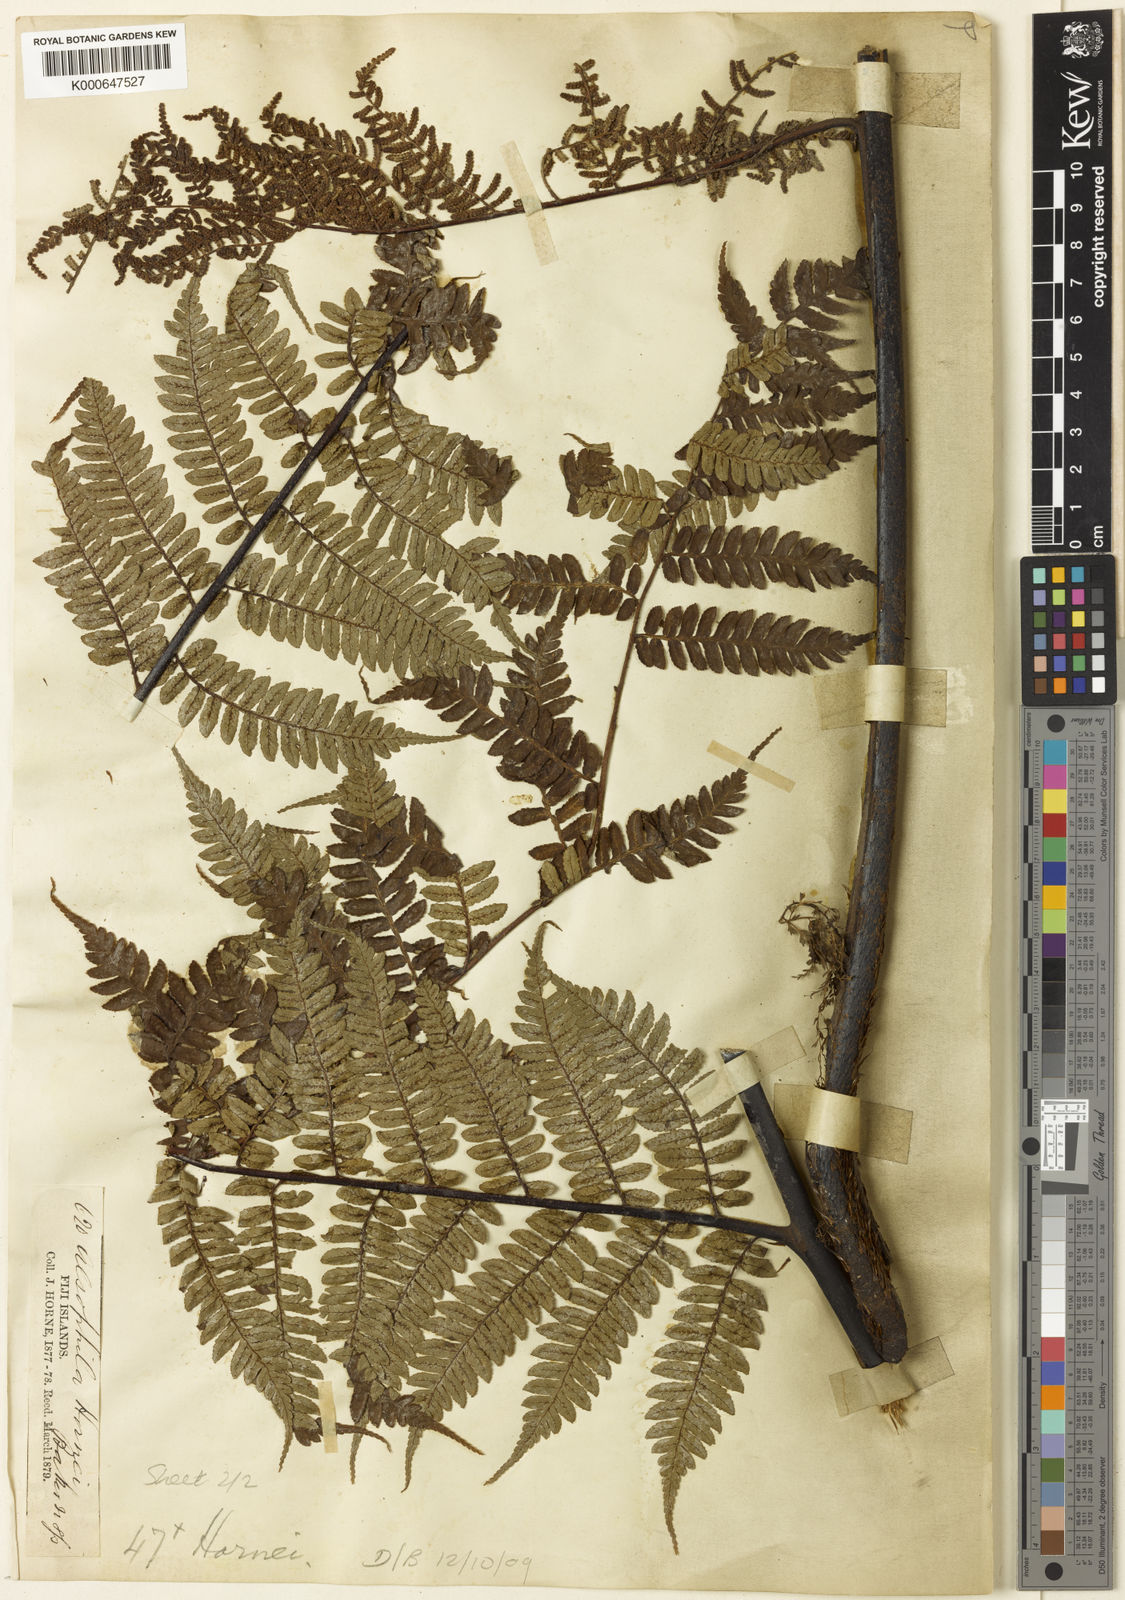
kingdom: Plantae
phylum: Tracheophyta
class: Polypodiopsida
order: Cyatheales
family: Cyatheaceae
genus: Gymnosphaera
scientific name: Gymnosphaera hornei
